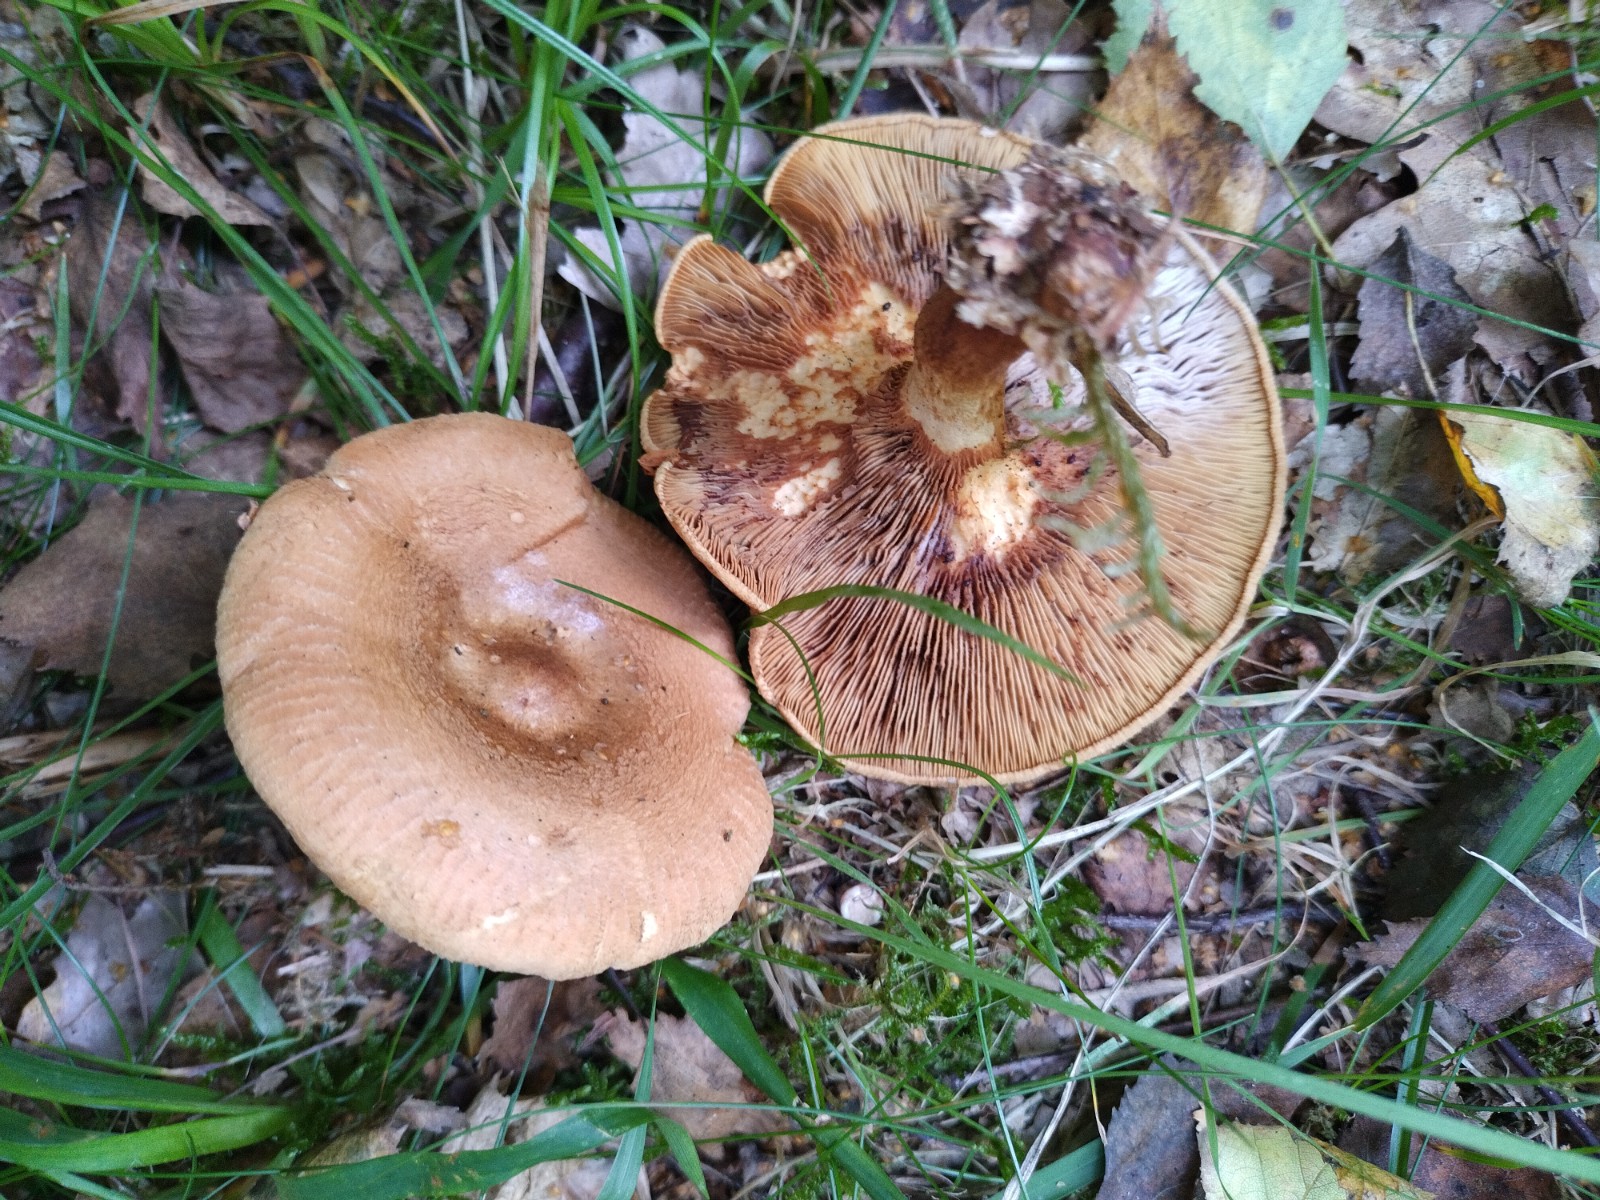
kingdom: Fungi
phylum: Basidiomycota
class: Agaricomycetes
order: Boletales
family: Paxillaceae
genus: Paxillus
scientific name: Paxillus involutus
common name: almindelig netbladhat
